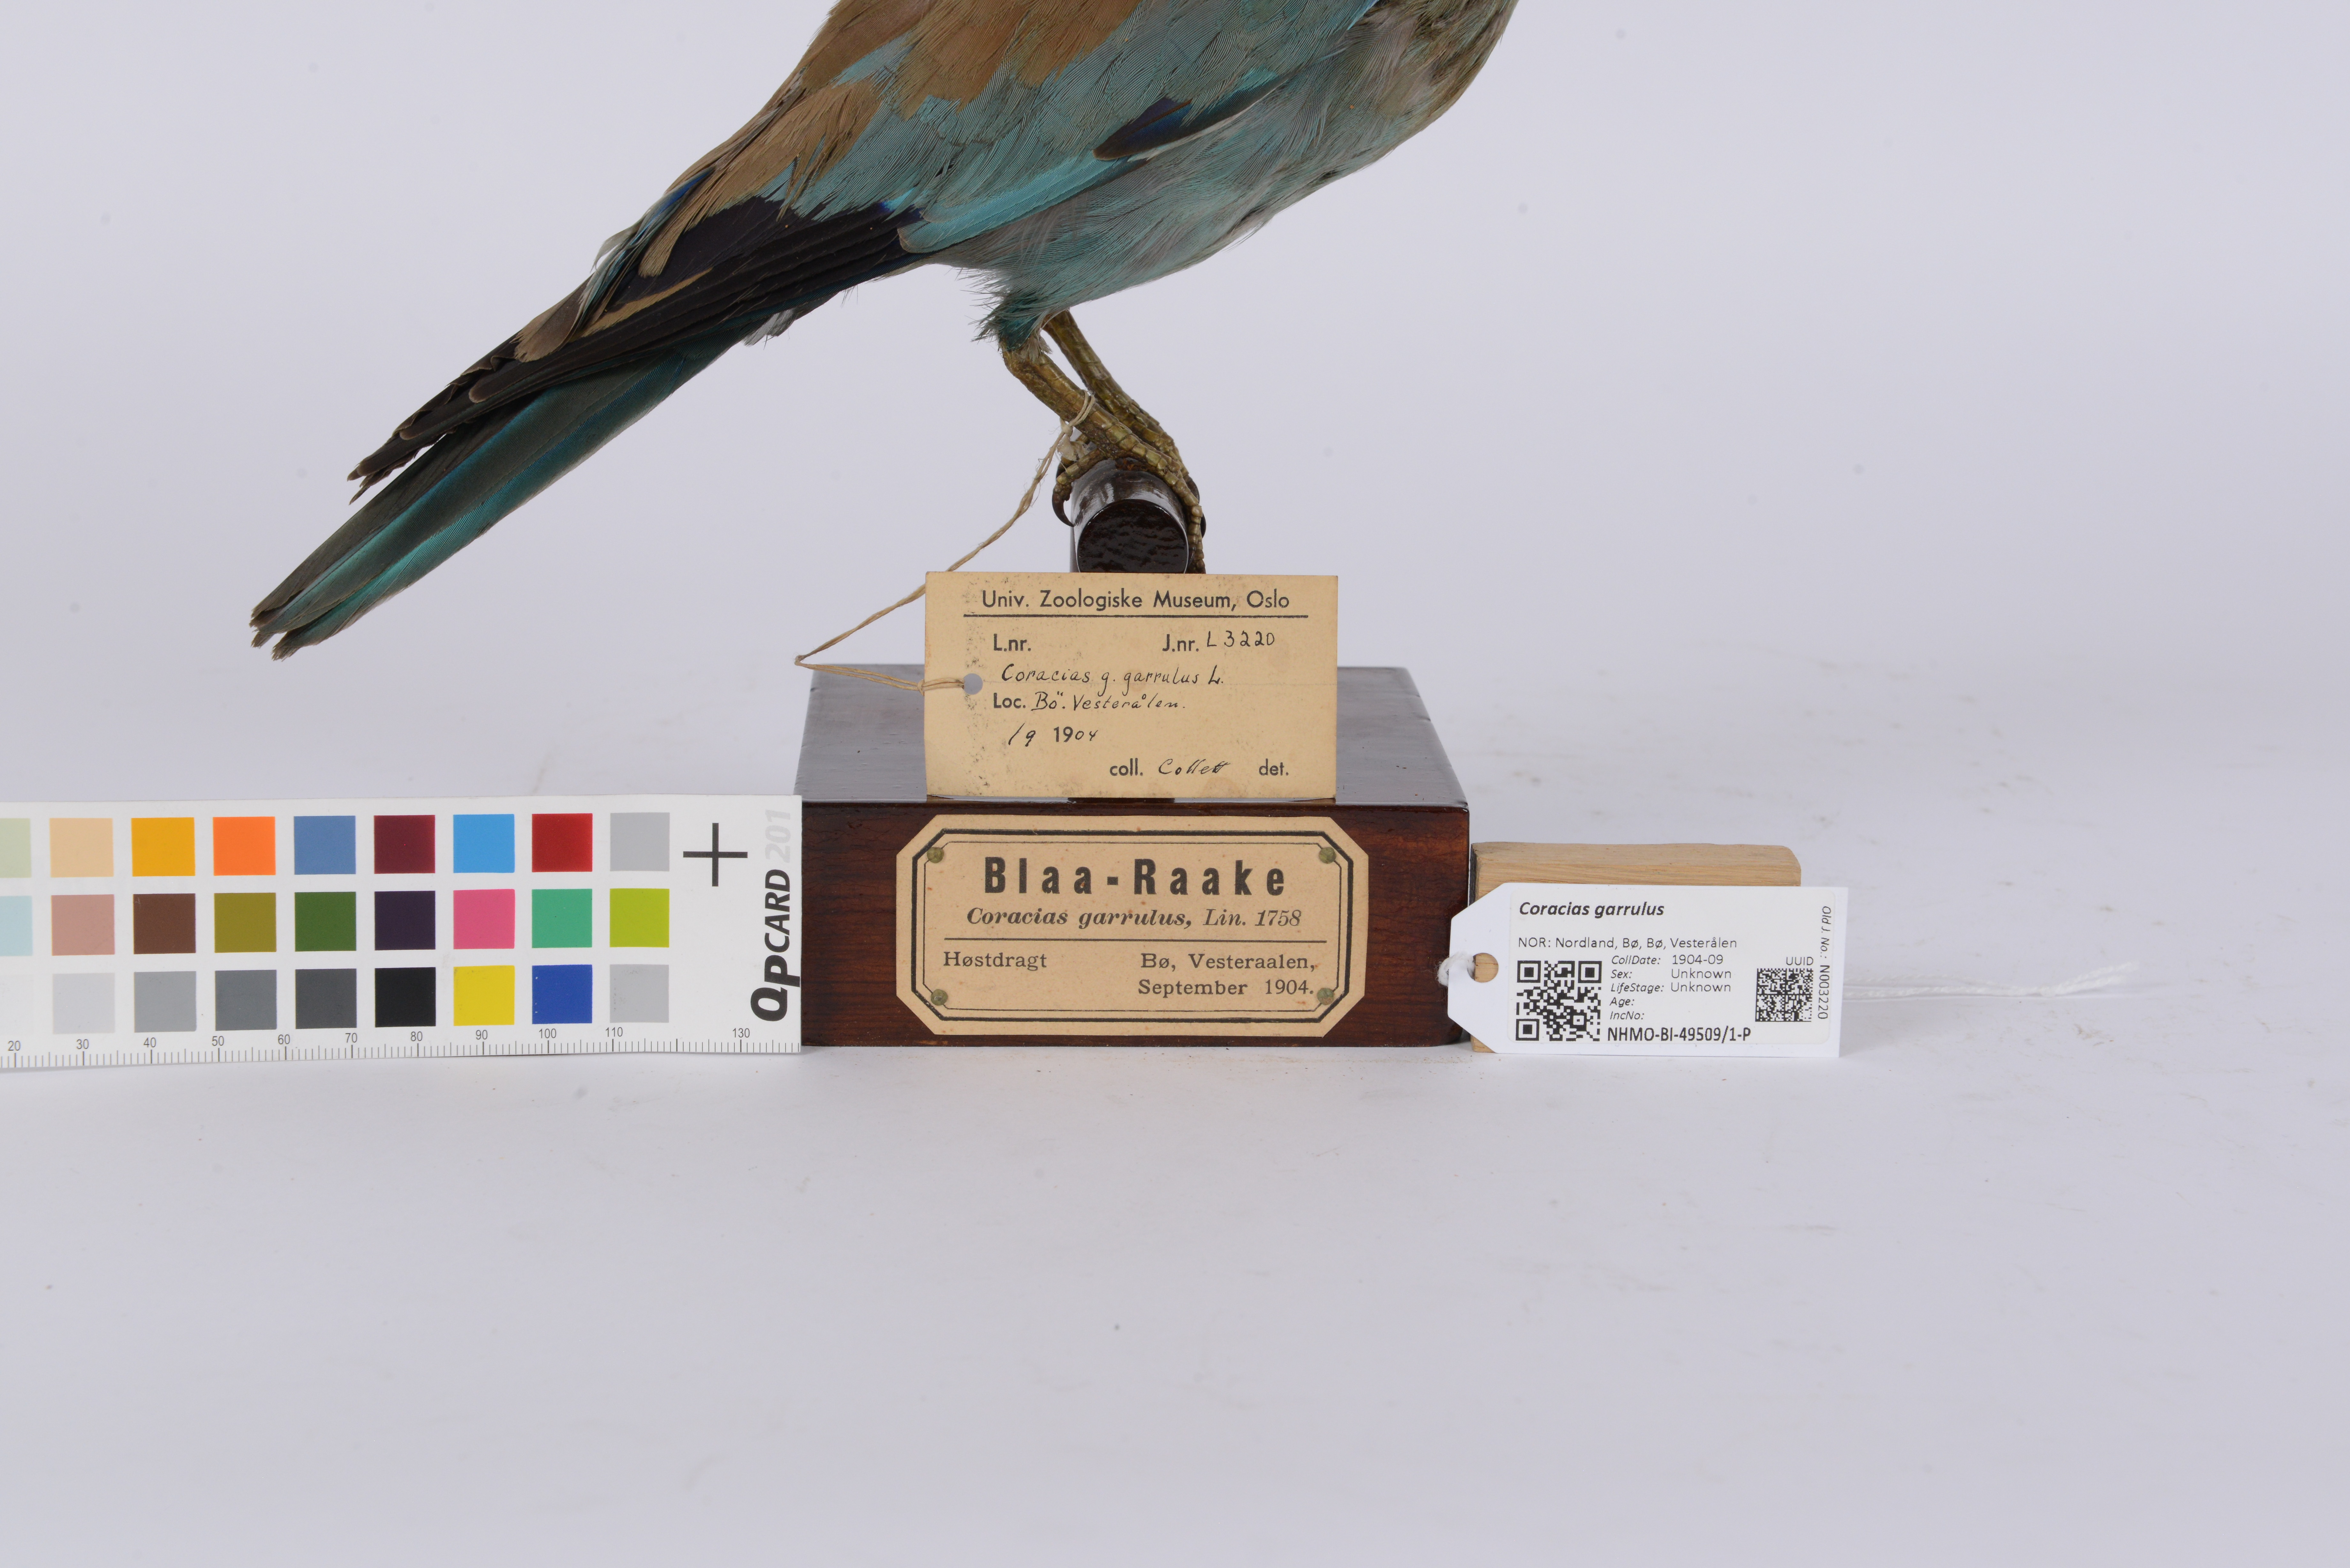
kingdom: Animalia
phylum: Chordata
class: Aves
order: Coraciiformes
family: Coraciidae
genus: Coracias
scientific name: Coracias garrulus
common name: European roller
